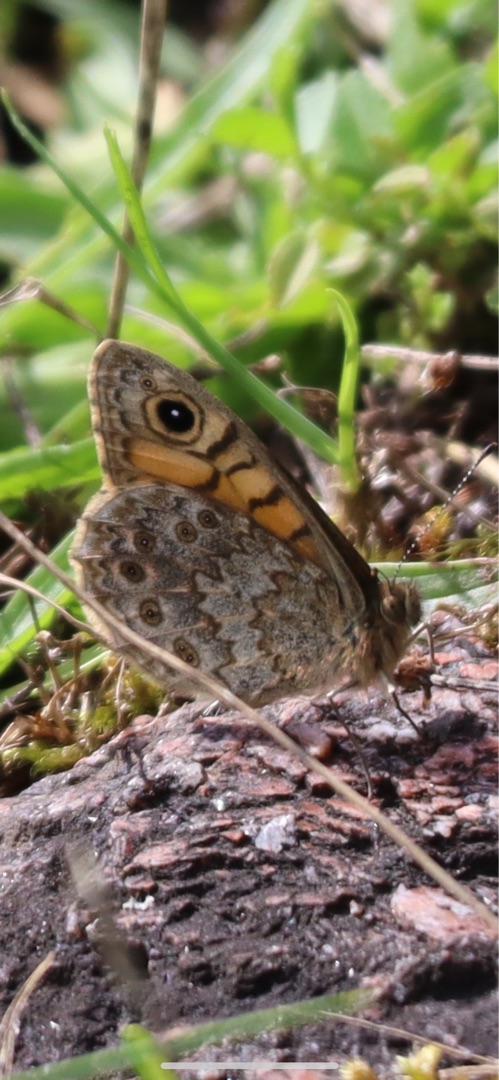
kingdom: Animalia
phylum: Arthropoda
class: Insecta
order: Lepidoptera
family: Nymphalidae
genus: Pararge
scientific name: Pararge Lasiommata megera
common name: Vejrandøje
